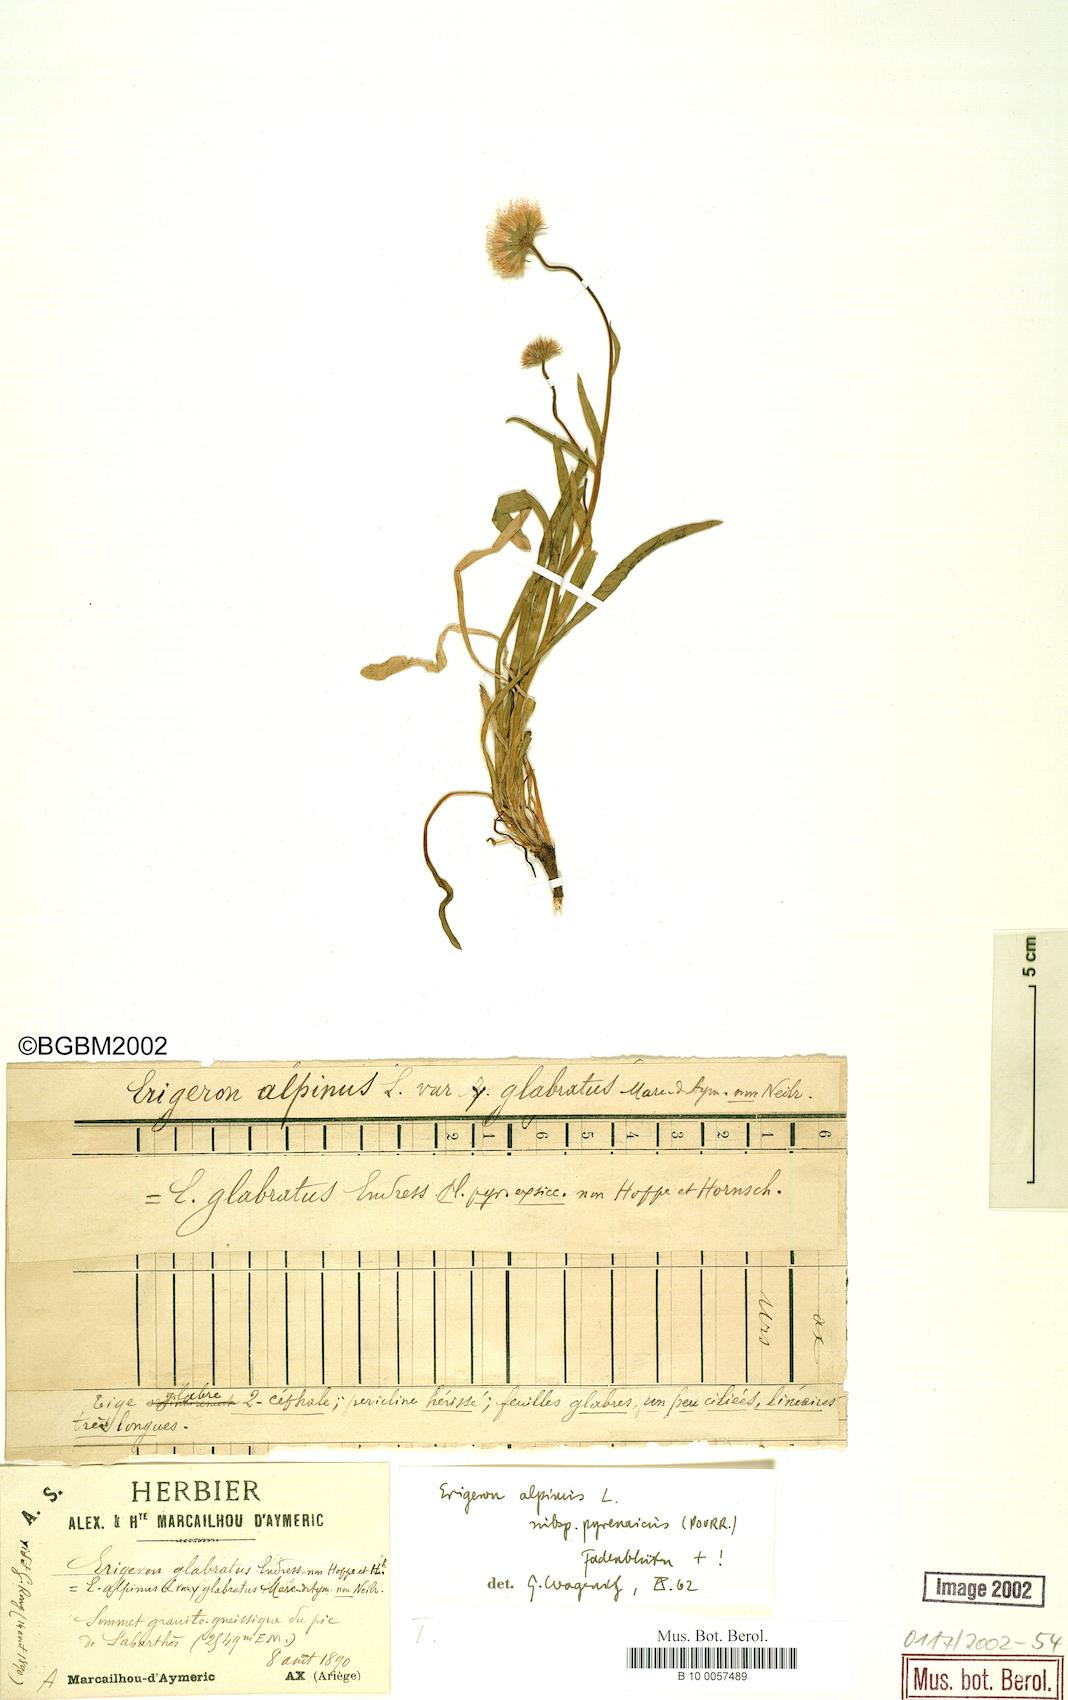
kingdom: Plantae
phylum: Tracheophyta
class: Magnoliopsida
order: Asterales
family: Asteraceae
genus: Erigeron
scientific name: Erigeron uniflorus
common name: Northern daisy
